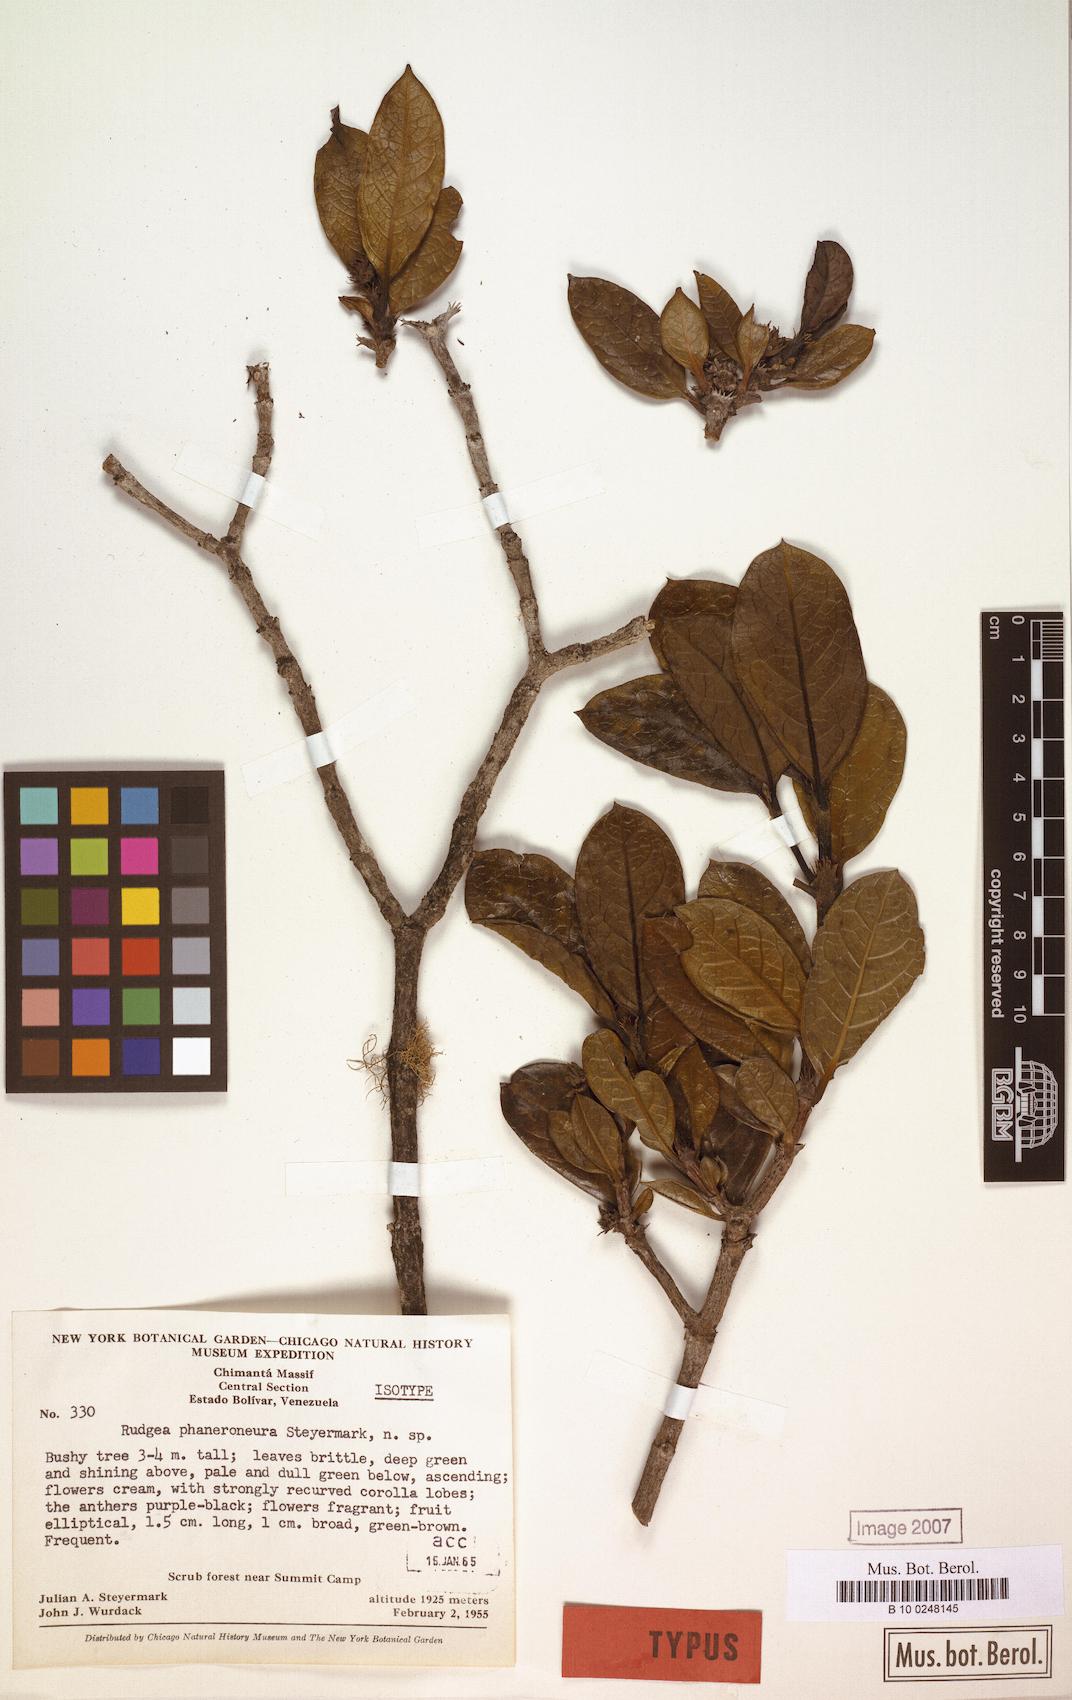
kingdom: Plantae
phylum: Tracheophyta
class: Magnoliopsida
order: Gentianales
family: Rubiaceae
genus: Rudgea
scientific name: Rudgea phaneroneura
